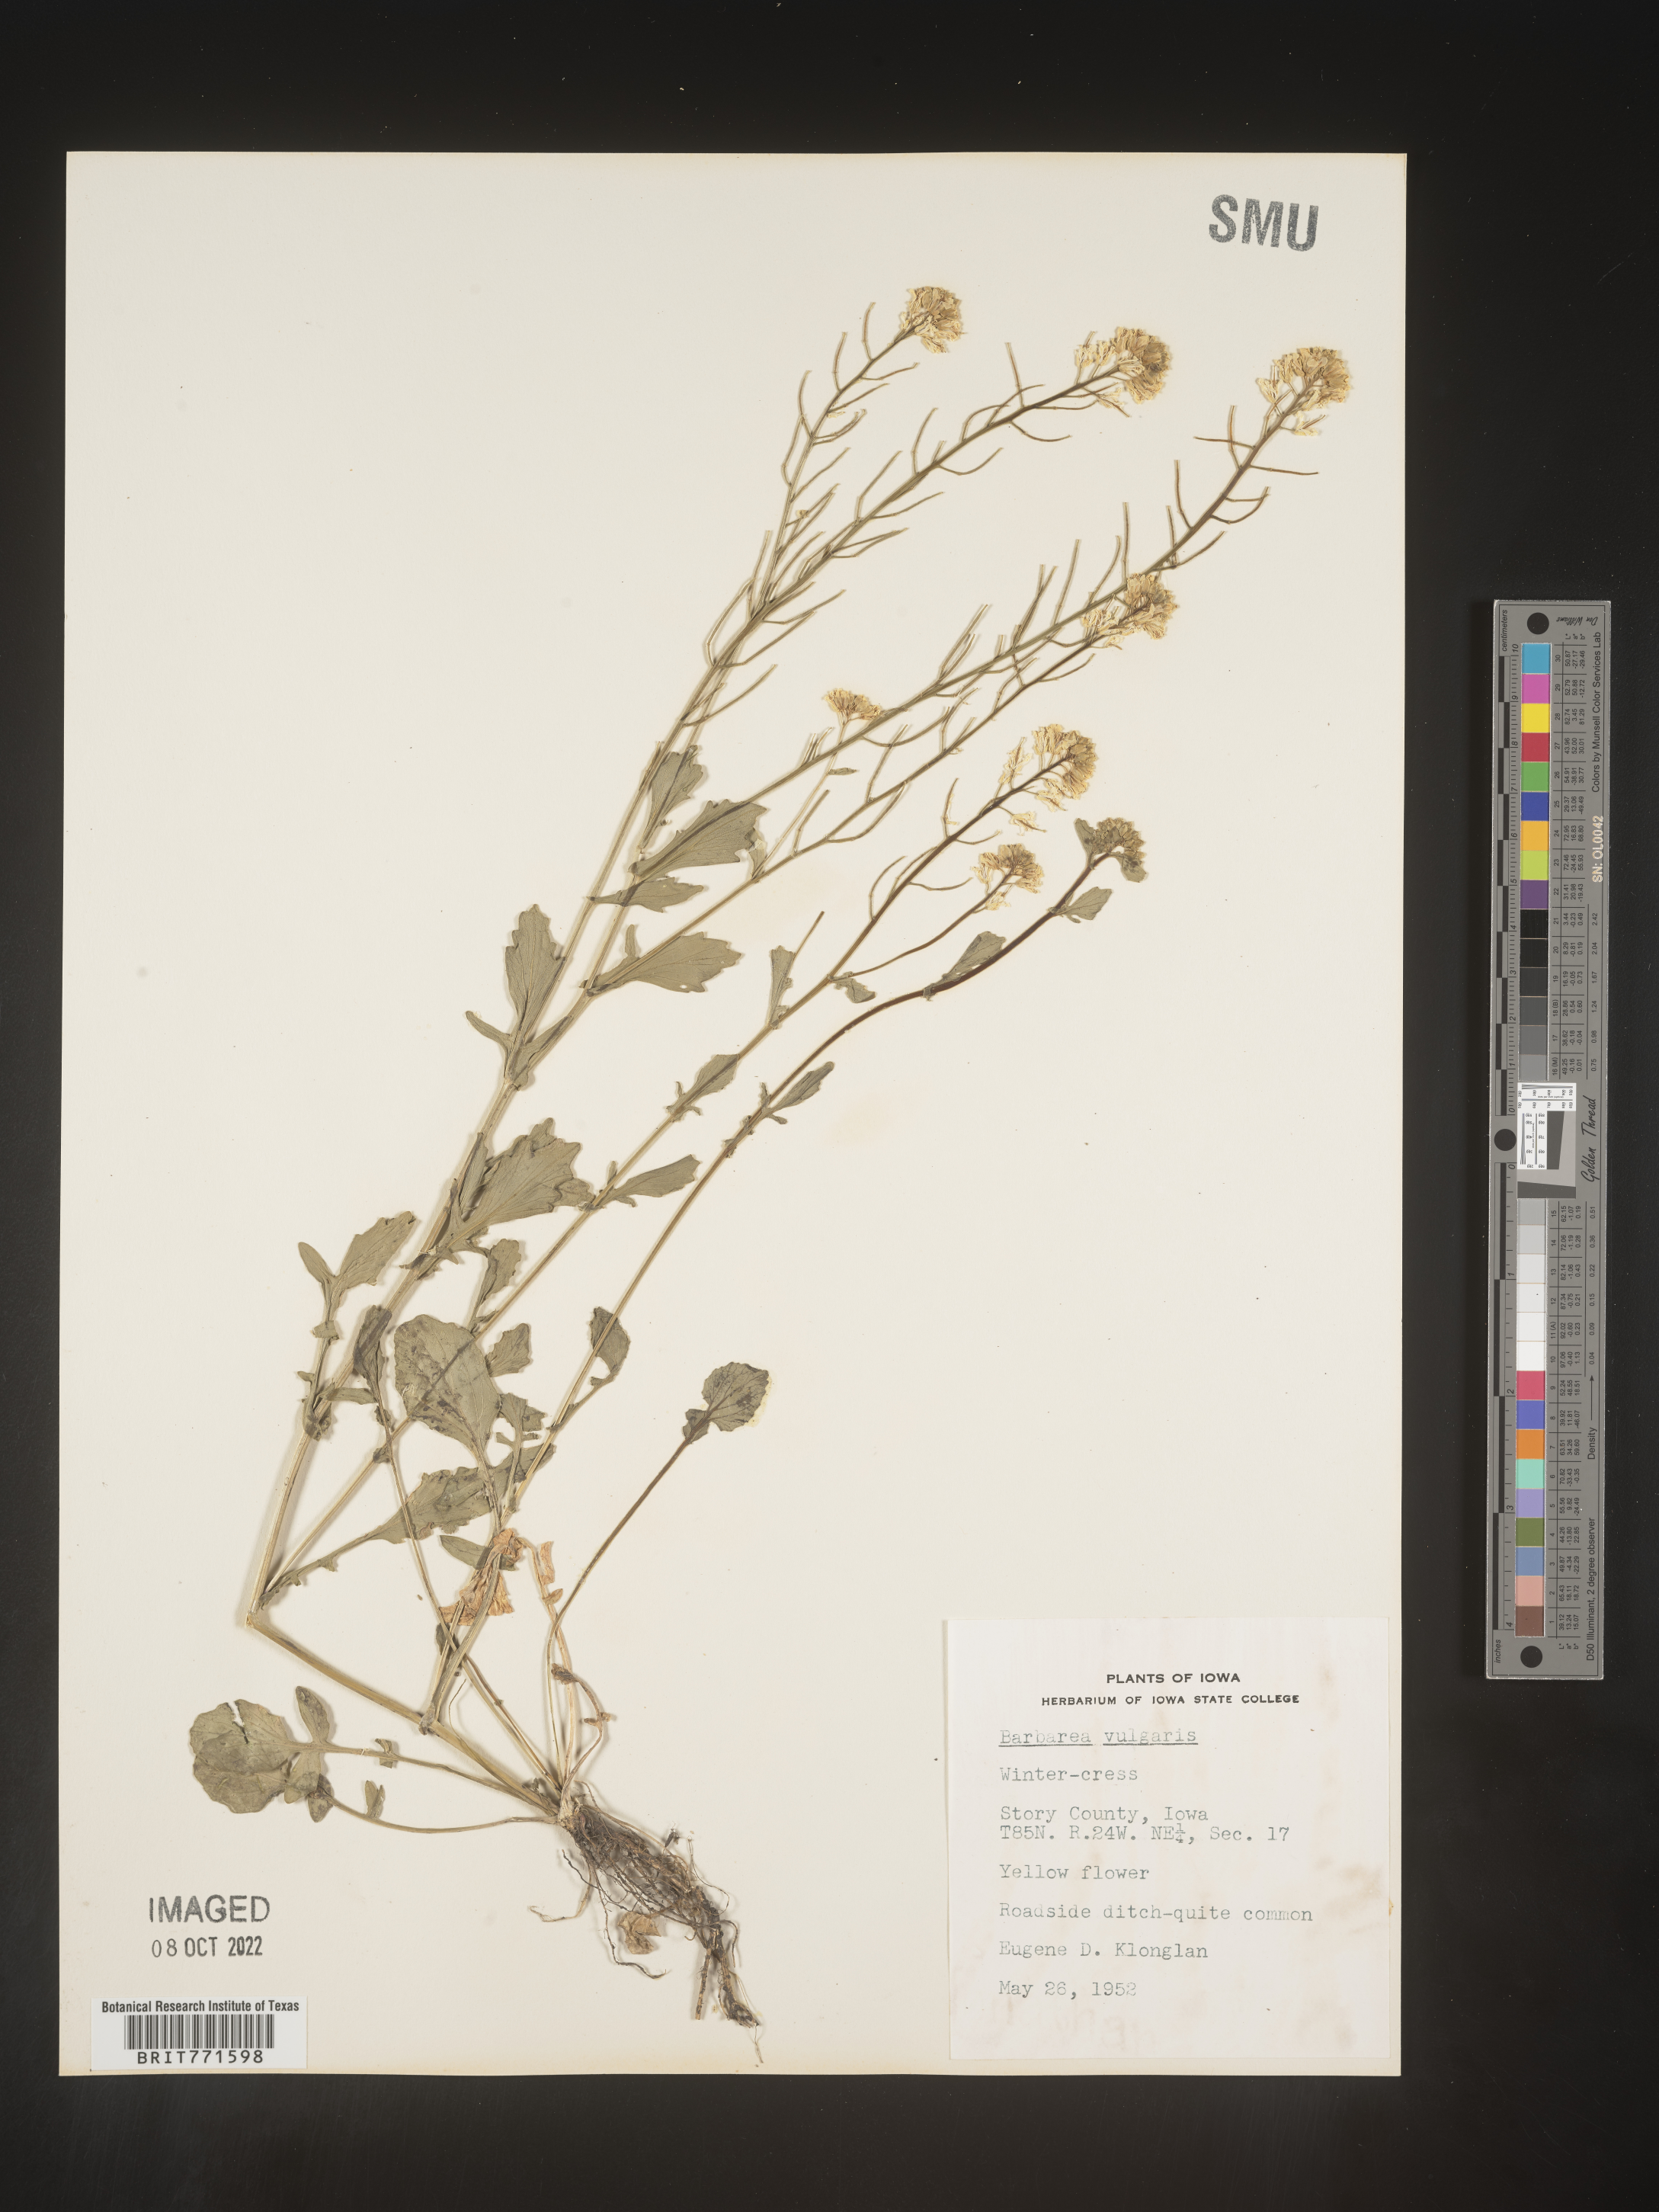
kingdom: Plantae
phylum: Tracheophyta
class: Magnoliopsida
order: Brassicales
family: Brassicaceae
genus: Barbarea
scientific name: Barbarea vulgaris
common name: Cressy-greens
